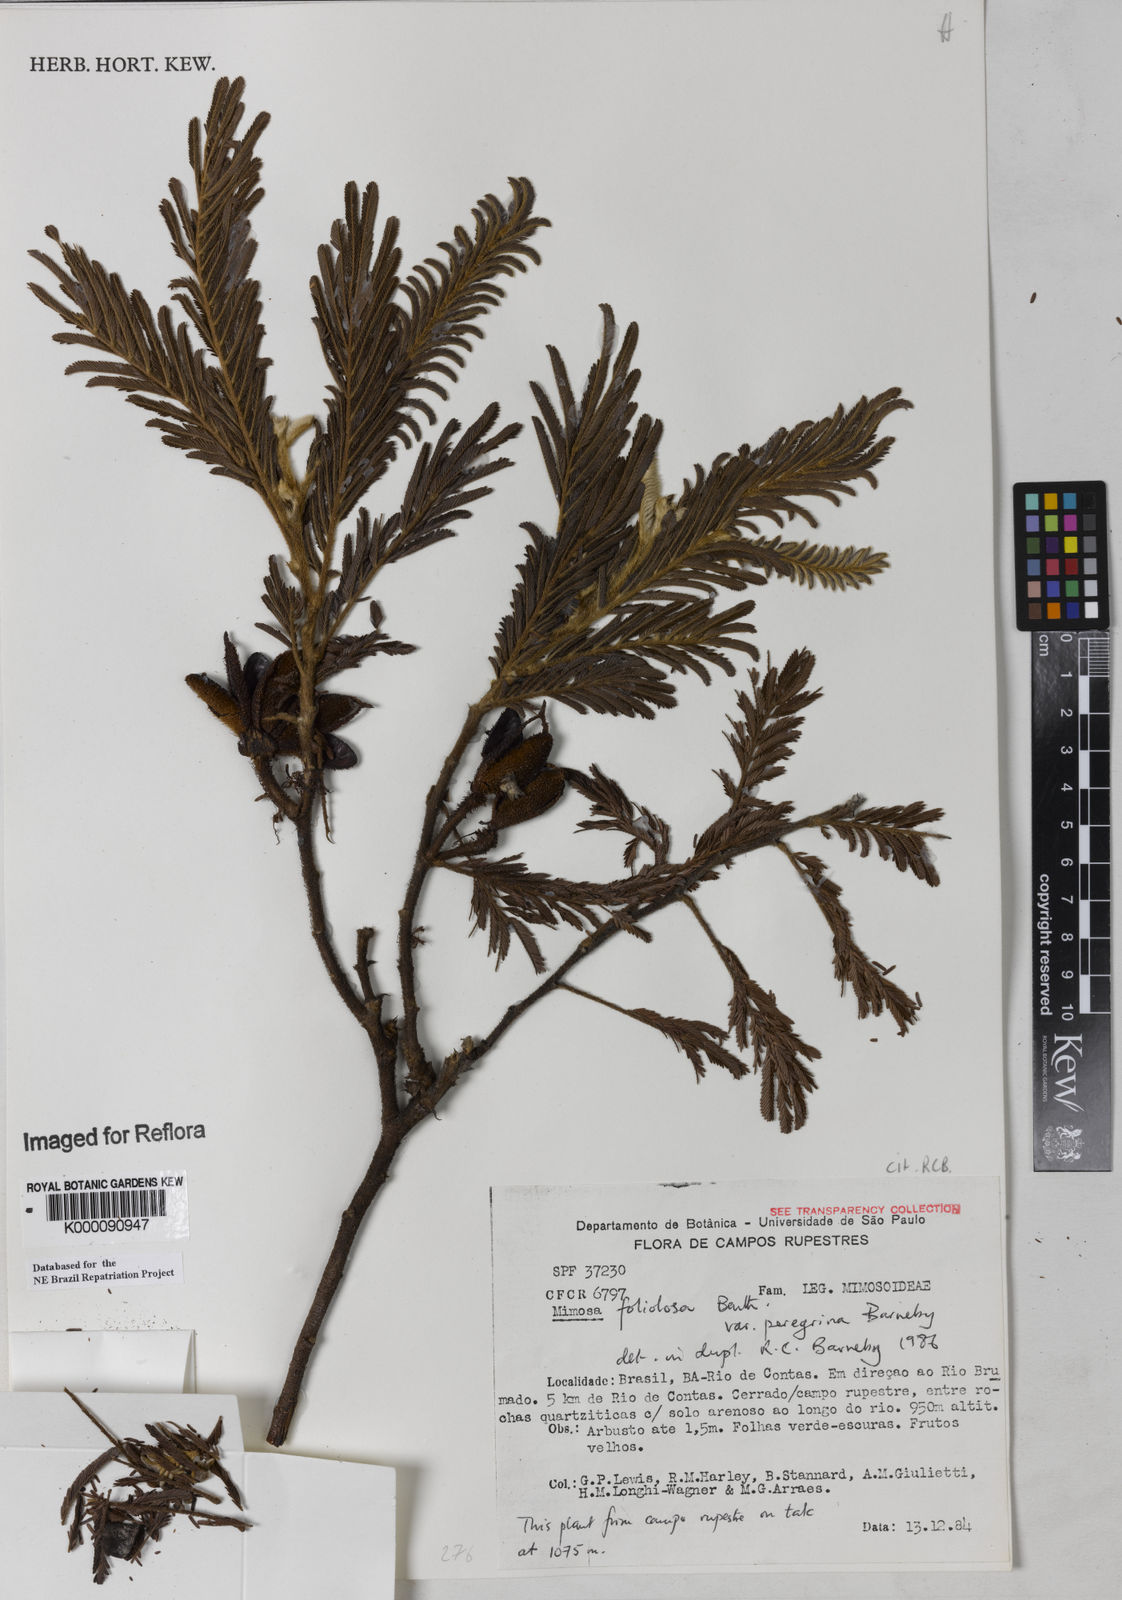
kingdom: Plantae
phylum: Tracheophyta
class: Magnoliopsida
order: Fabales
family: Fabaceae
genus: Mimosa
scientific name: Mimosa foliolosa
